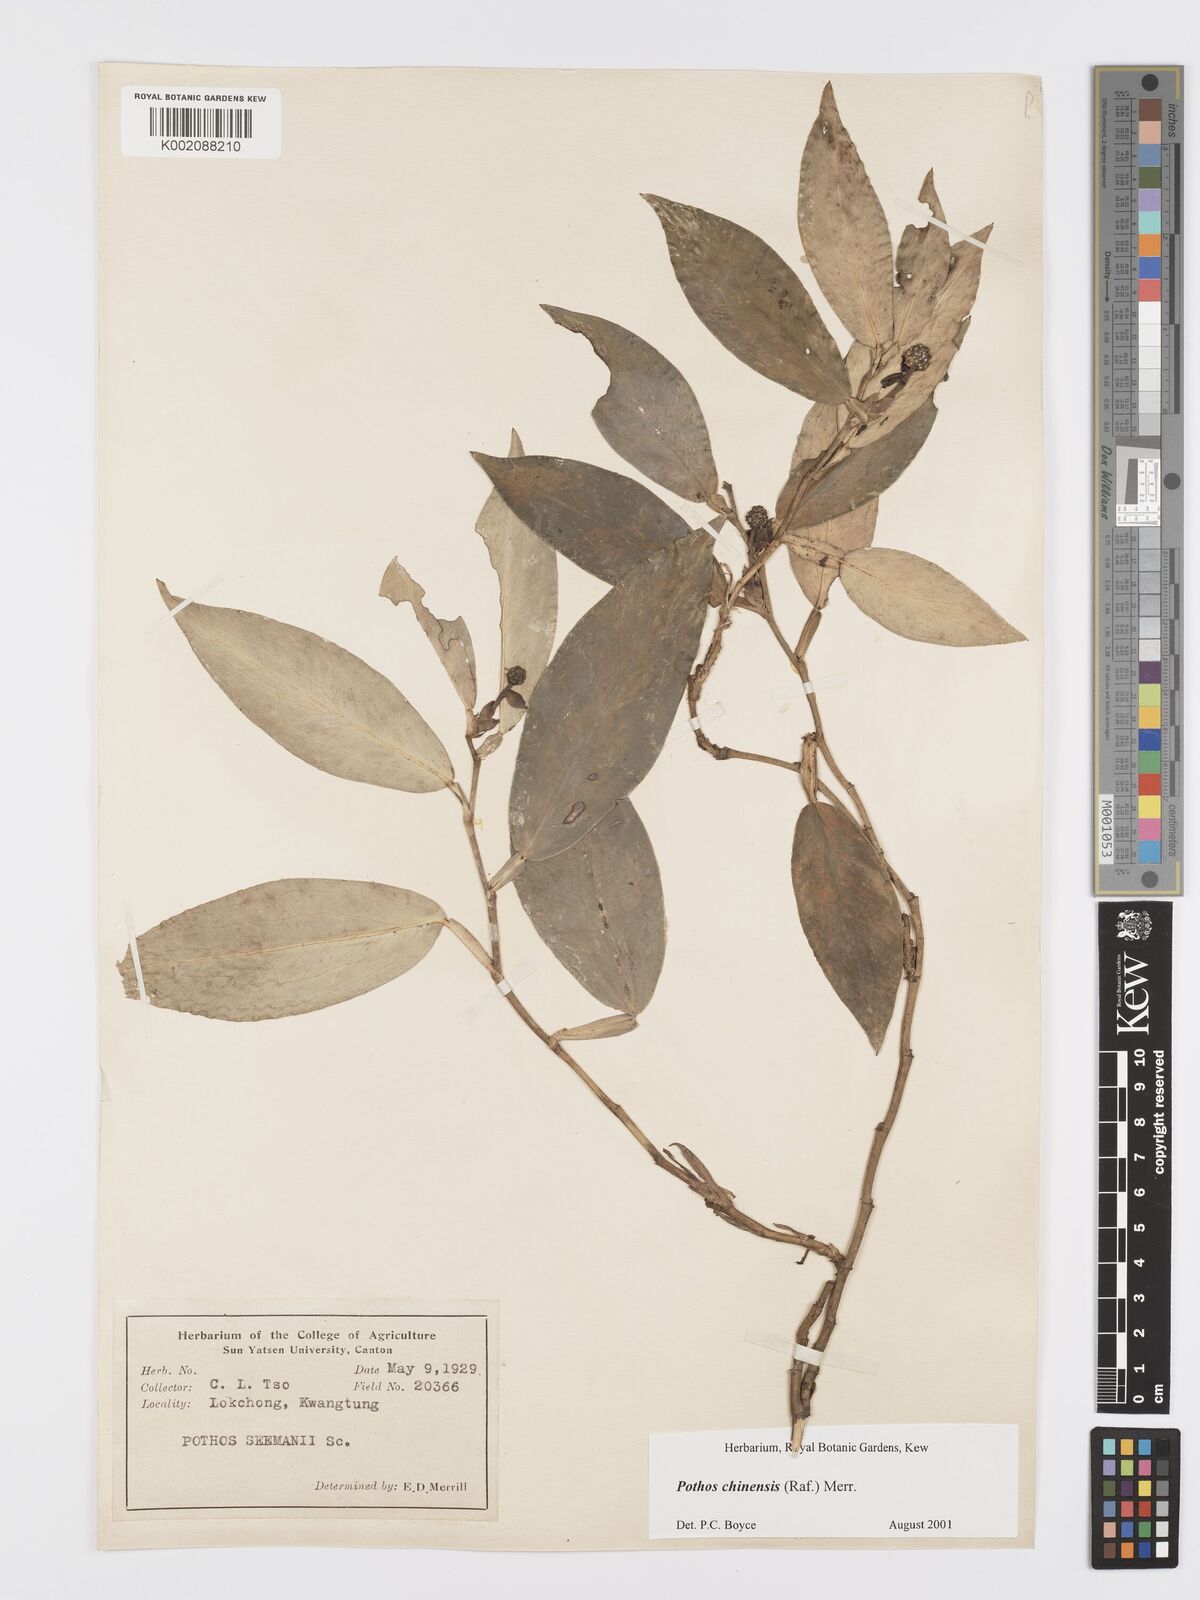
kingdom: Plantae
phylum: Tracheophyta
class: Liliopsida
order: Alismatales
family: Araceae
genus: Pothos
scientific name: Pothos chinensis
